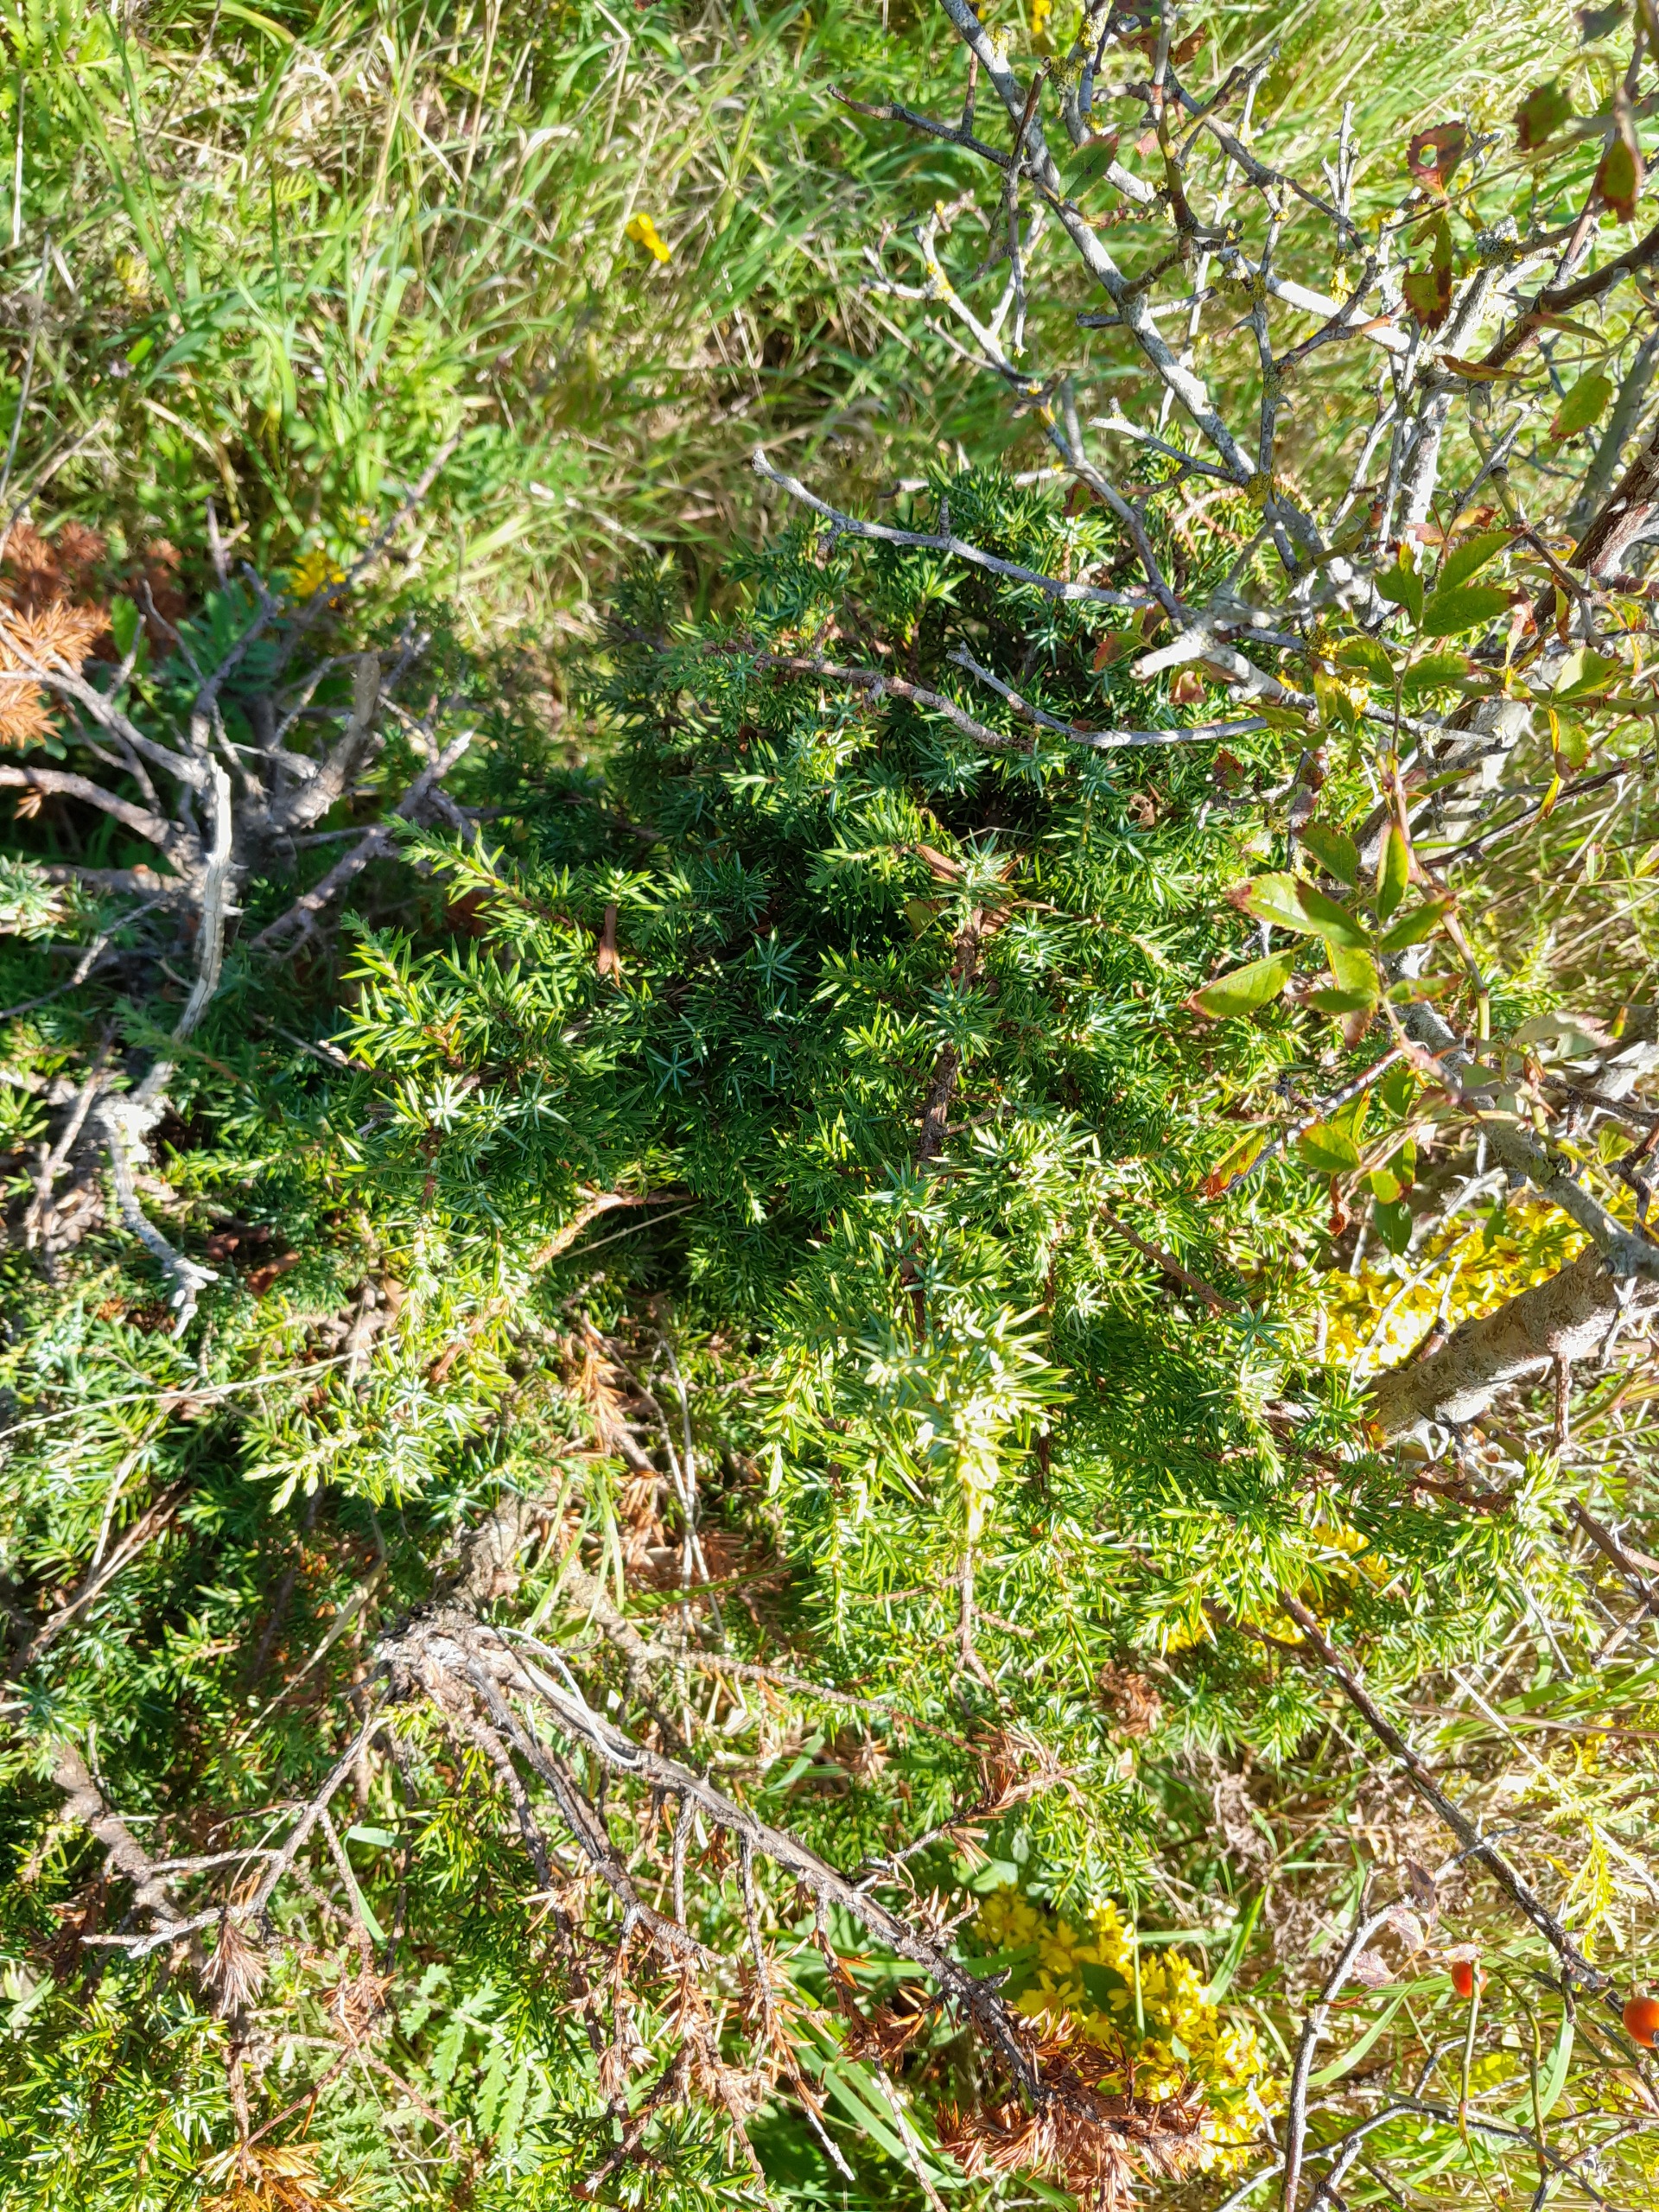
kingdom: Plantae
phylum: Tracheophyta
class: Pinopsida
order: Pinales
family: Cupressaceae
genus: Juniperus
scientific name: Juniperus communis
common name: Almindelig ene
